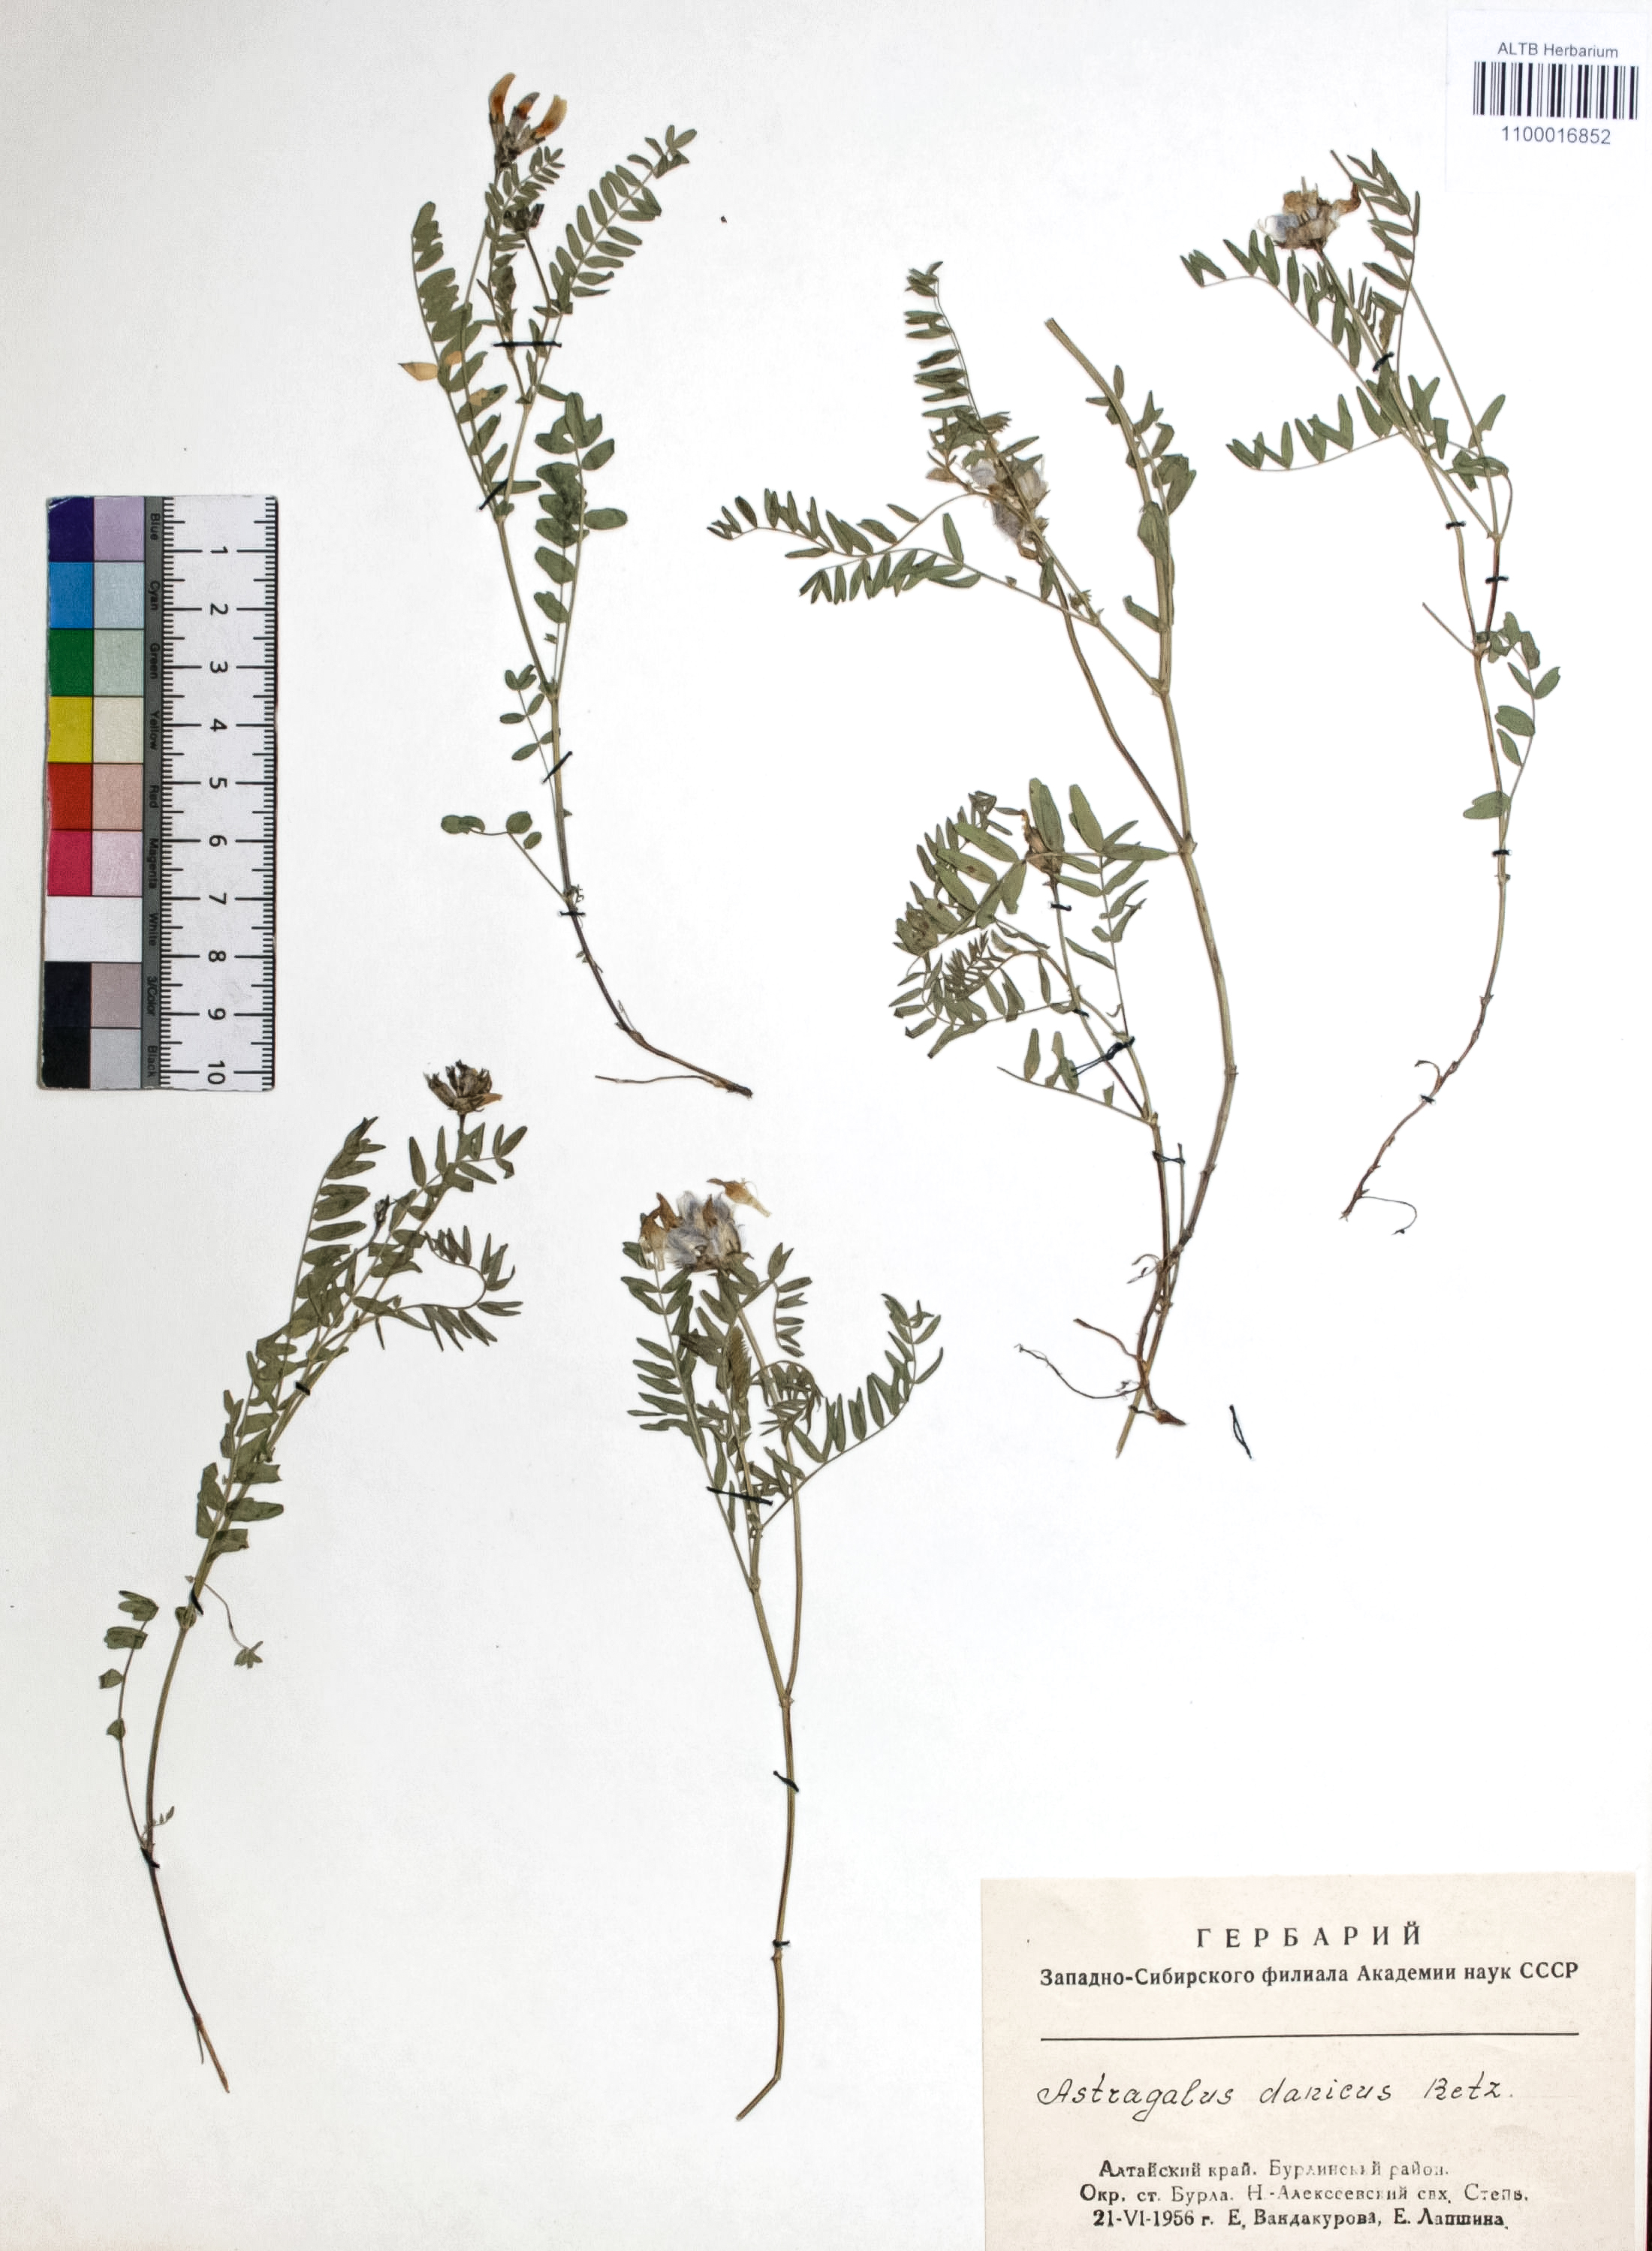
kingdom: Plantae
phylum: Tracheophyta
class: Magnoliopsida
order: Fabales
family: Fabaceae
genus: Astragalus
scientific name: Astragalus danicus
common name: Purple milk-vetch
